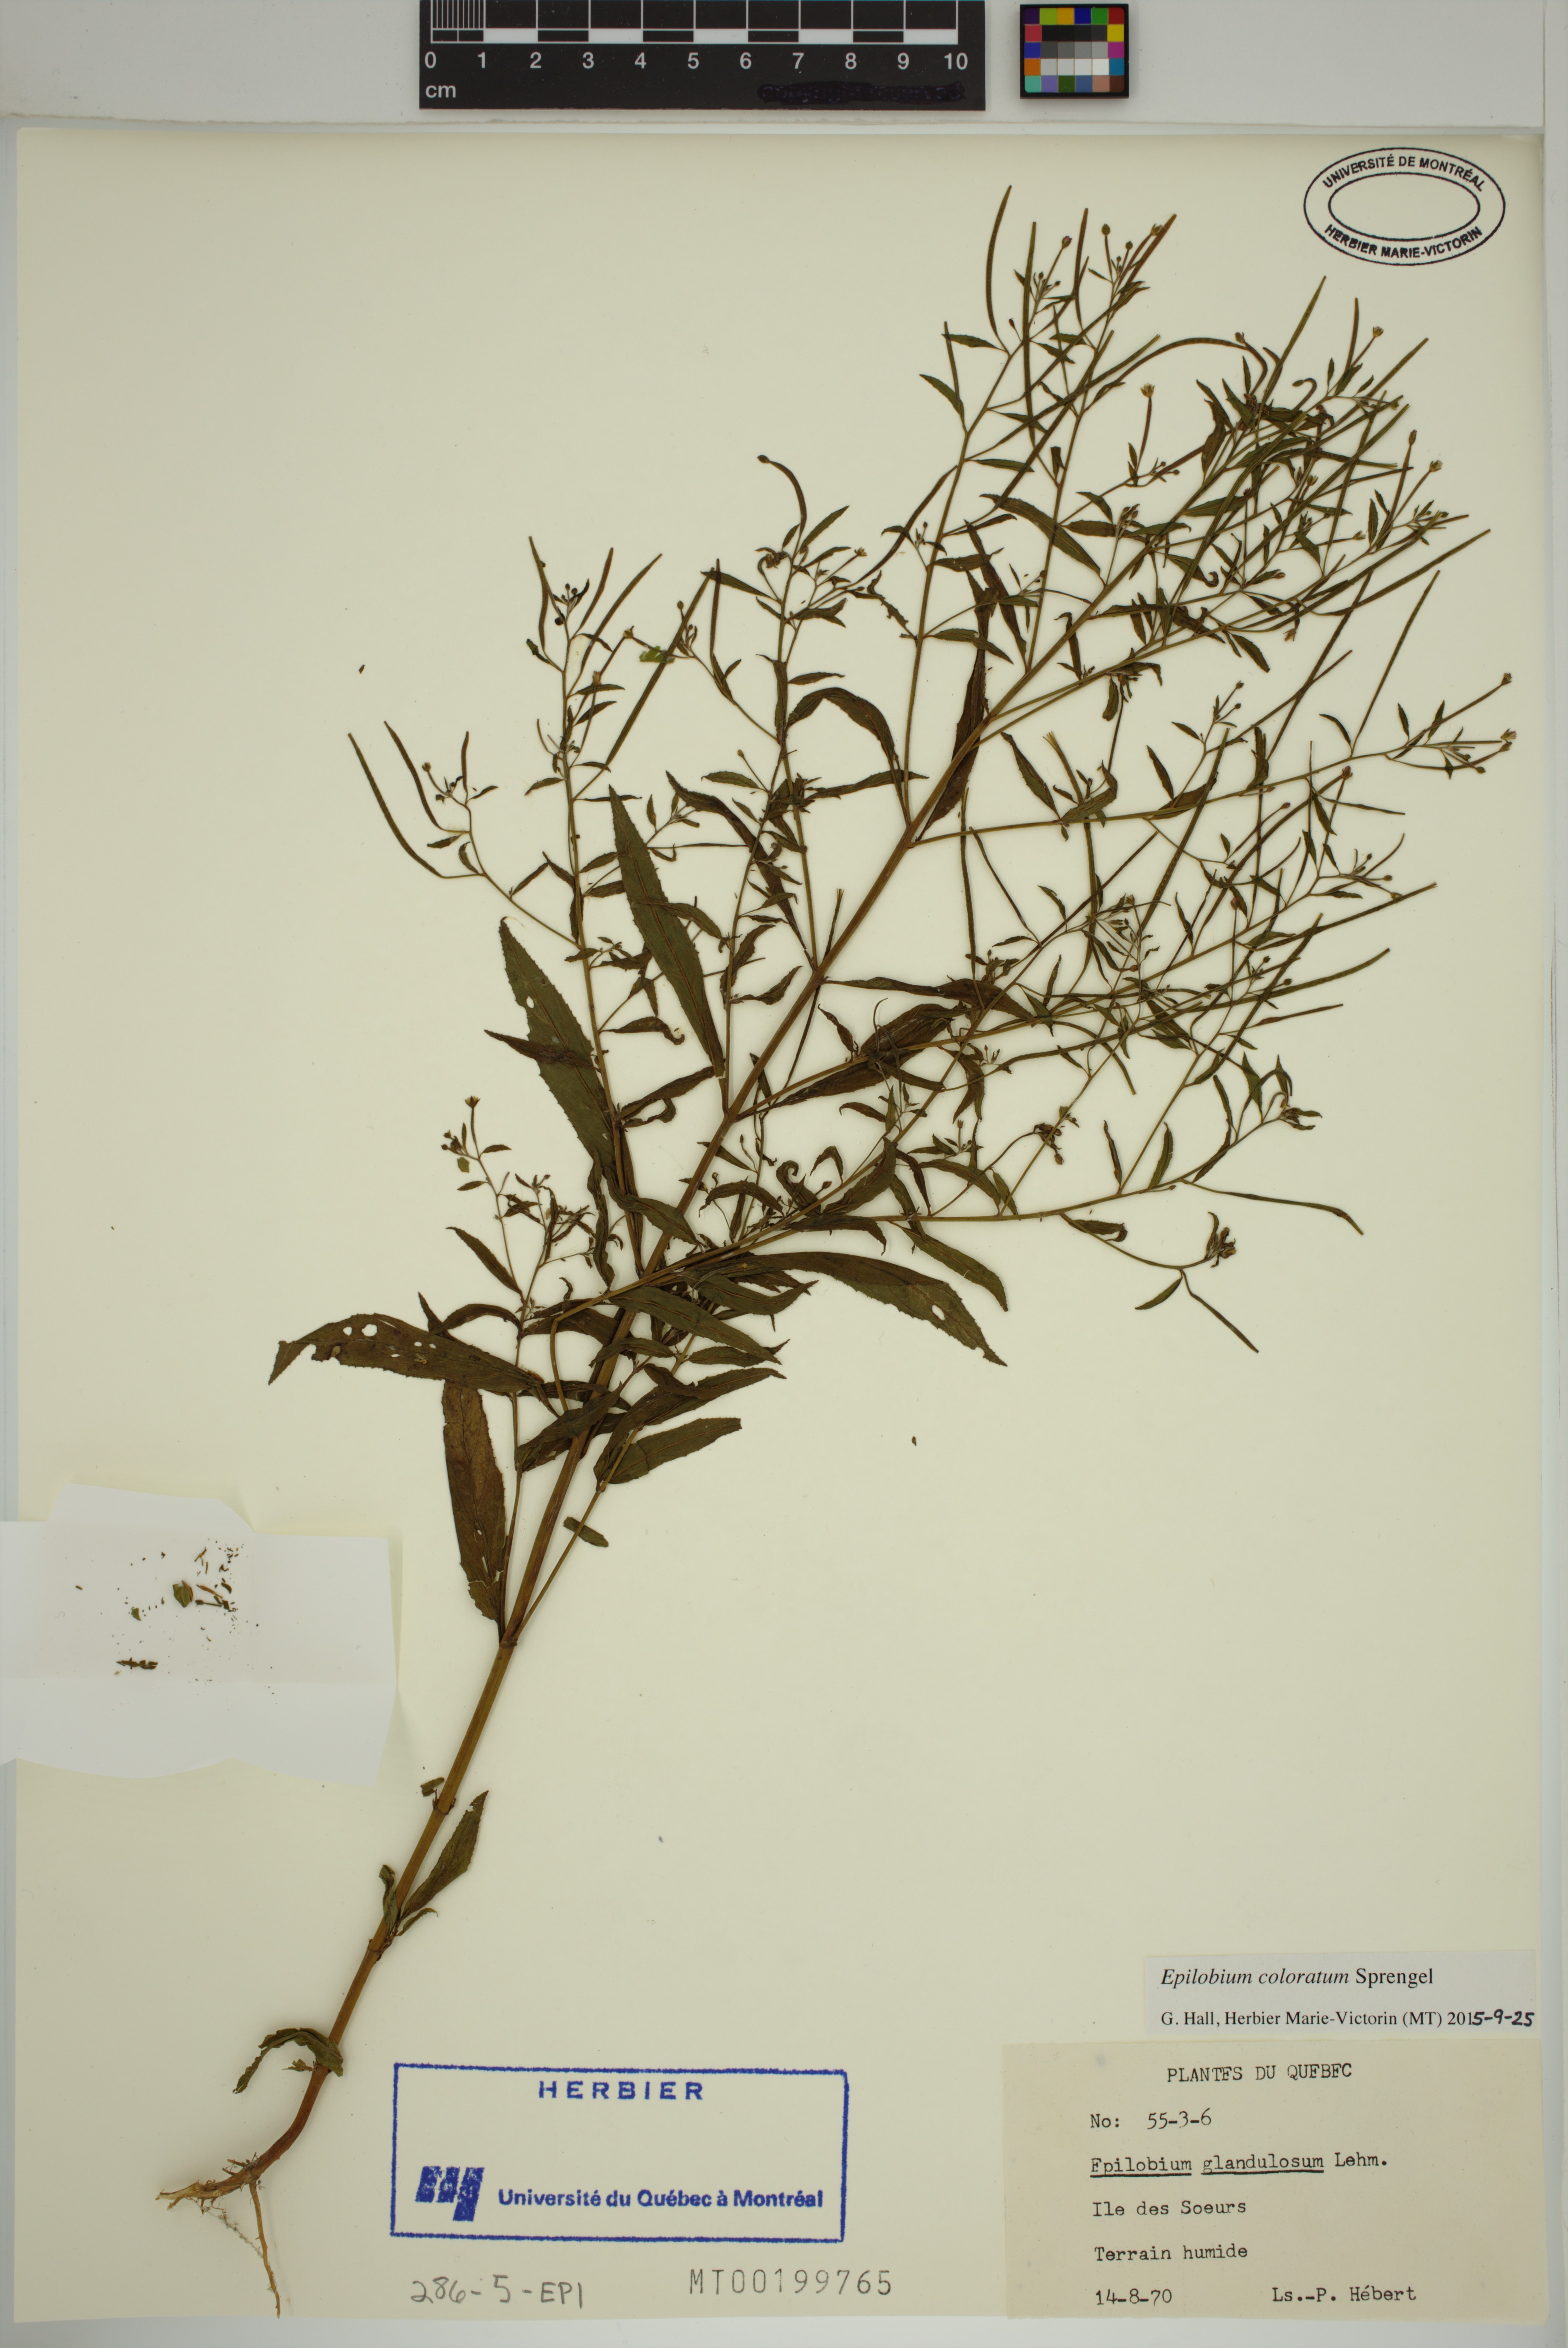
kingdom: Plantae
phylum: Tracheophyta
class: Magnoliopsida
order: Myrtales
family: Onagraceae
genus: Epilobium
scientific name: Epilobium coloratum
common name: Bronze willowherb
